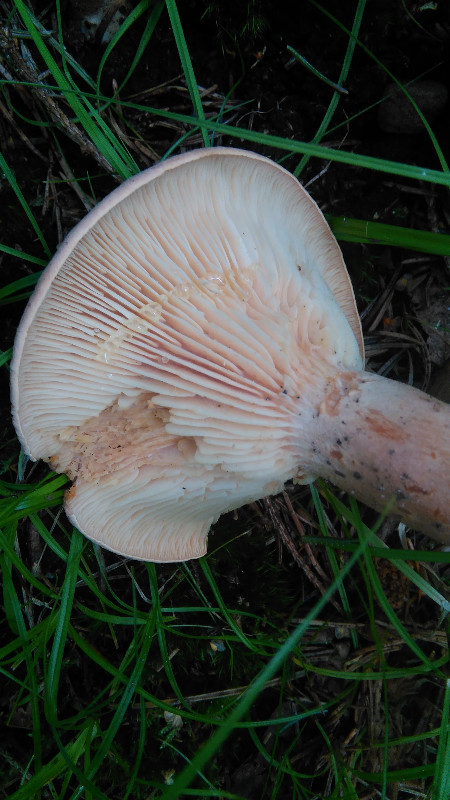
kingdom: Fungi
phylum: Basidiomycota
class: Agaricomycetes
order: Russulales
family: Russulaceae
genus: Lactarius
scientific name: Lactarius helvus
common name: mose-mælkehat
